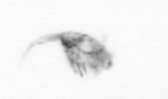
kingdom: Animalia
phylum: Arthropoda
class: Copepoda
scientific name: Copepoda
